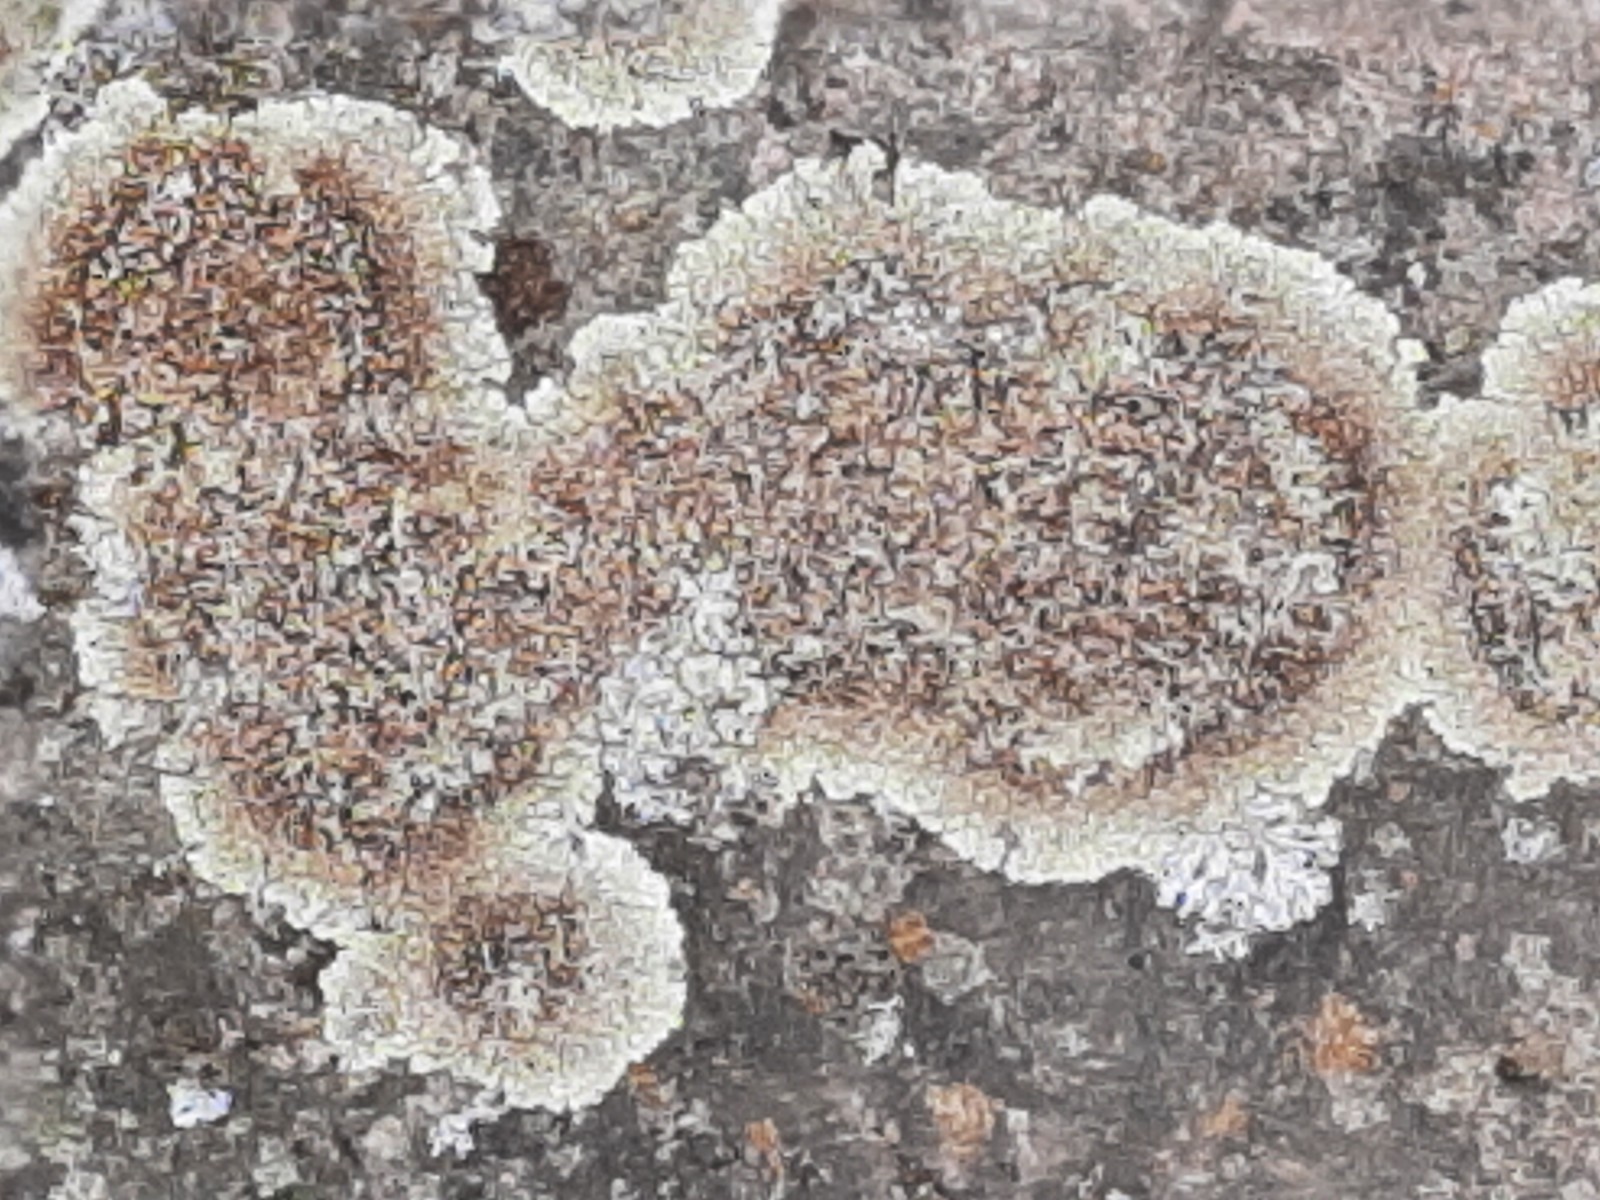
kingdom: Fungi
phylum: Ascomycota
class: Lecanoromycetes
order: Lecanorales
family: Lecanoraceae
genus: Protoparmeliopsis
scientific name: Protoparmeliopsis muralis
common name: randfliget kantskivelav
